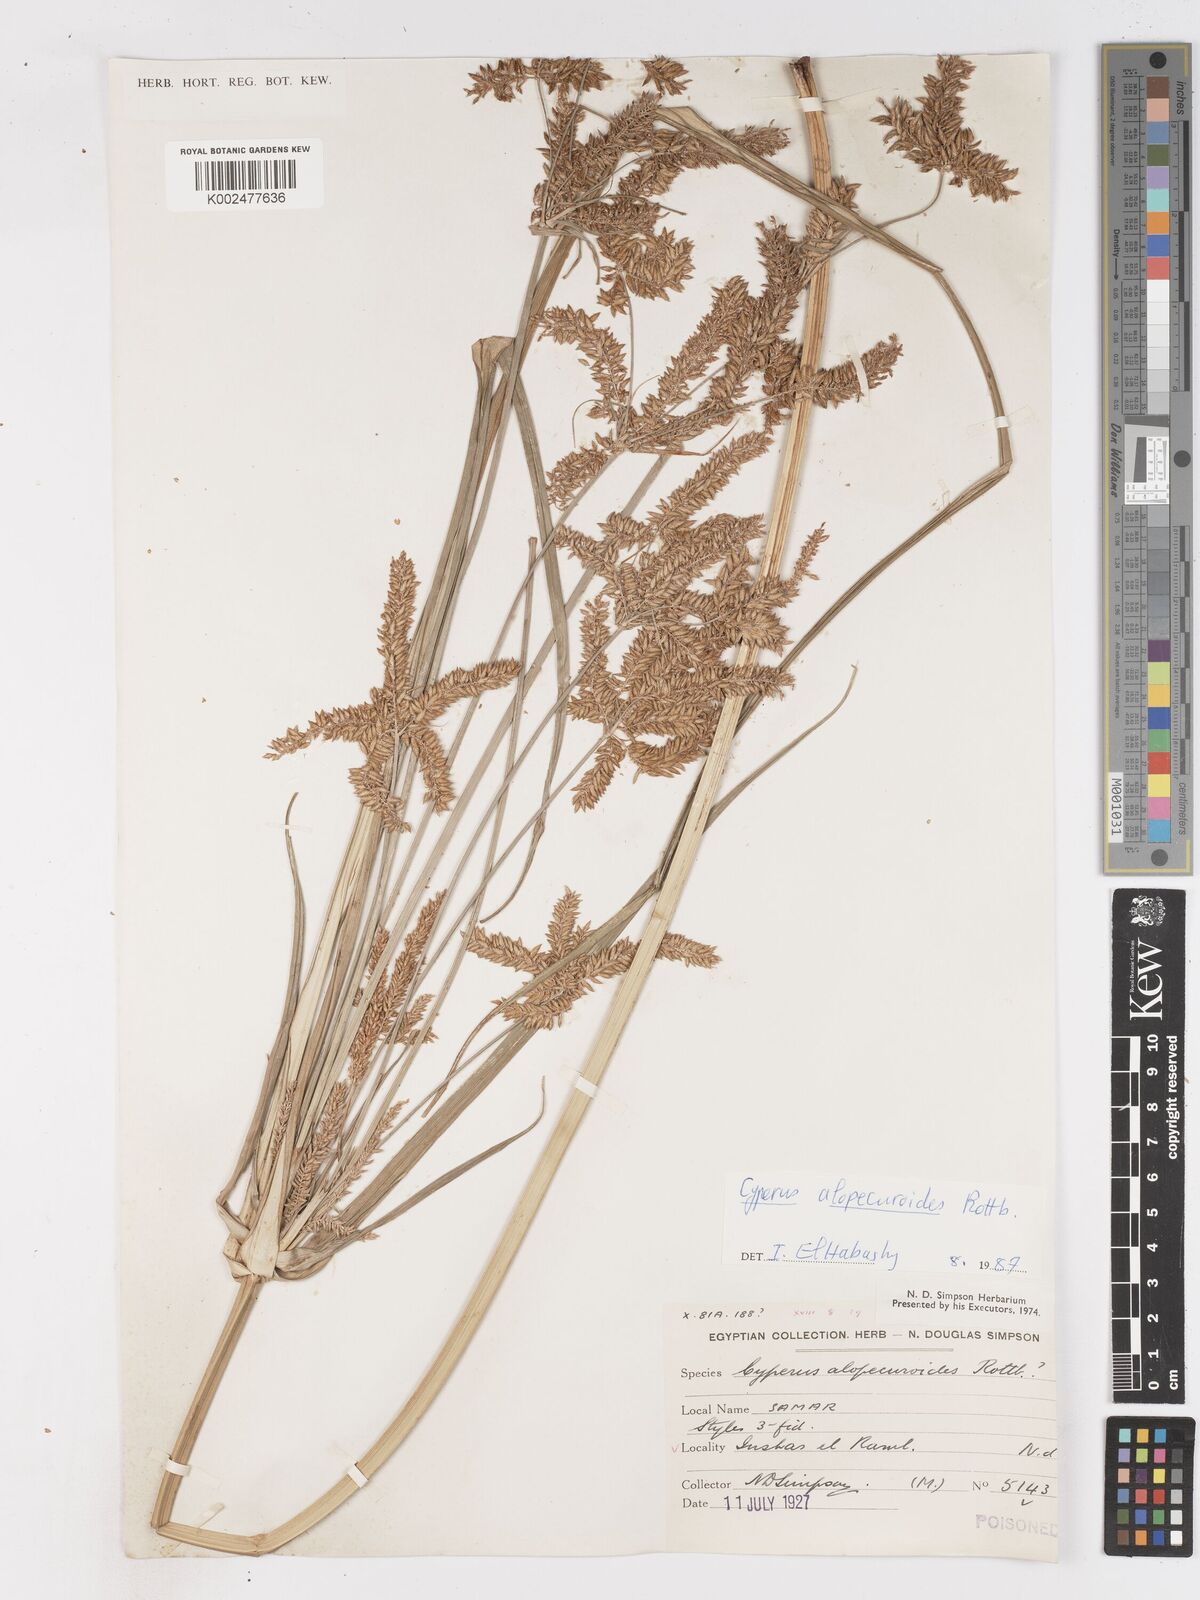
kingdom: Plantae
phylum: Tracheophyta
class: Liliopsida
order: Poales
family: Cyperaceae
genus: Cyperus
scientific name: Cyperus alopecuroides
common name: Foxtail flatsedge
